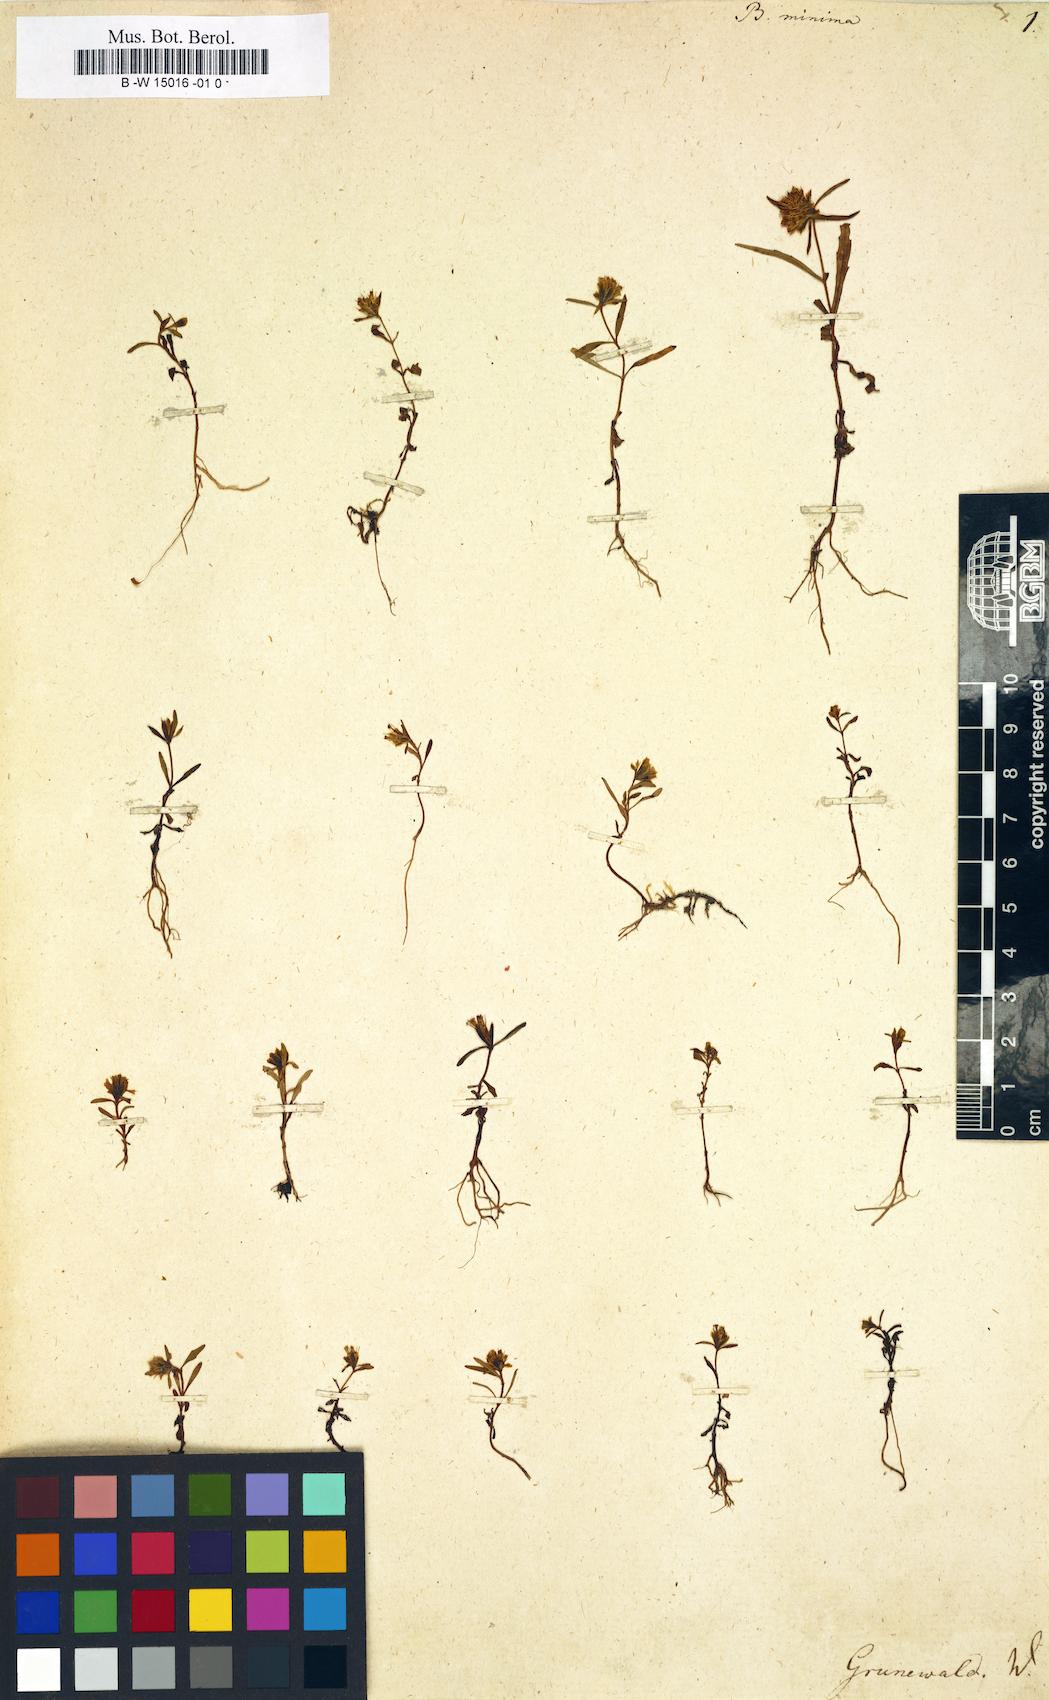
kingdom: Plantae
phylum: Tracheophyta
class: Magnoliopsida
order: Asterales
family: Asteraceae
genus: Bidens
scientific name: Bidens cernua
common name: Nodding bur-marigold
